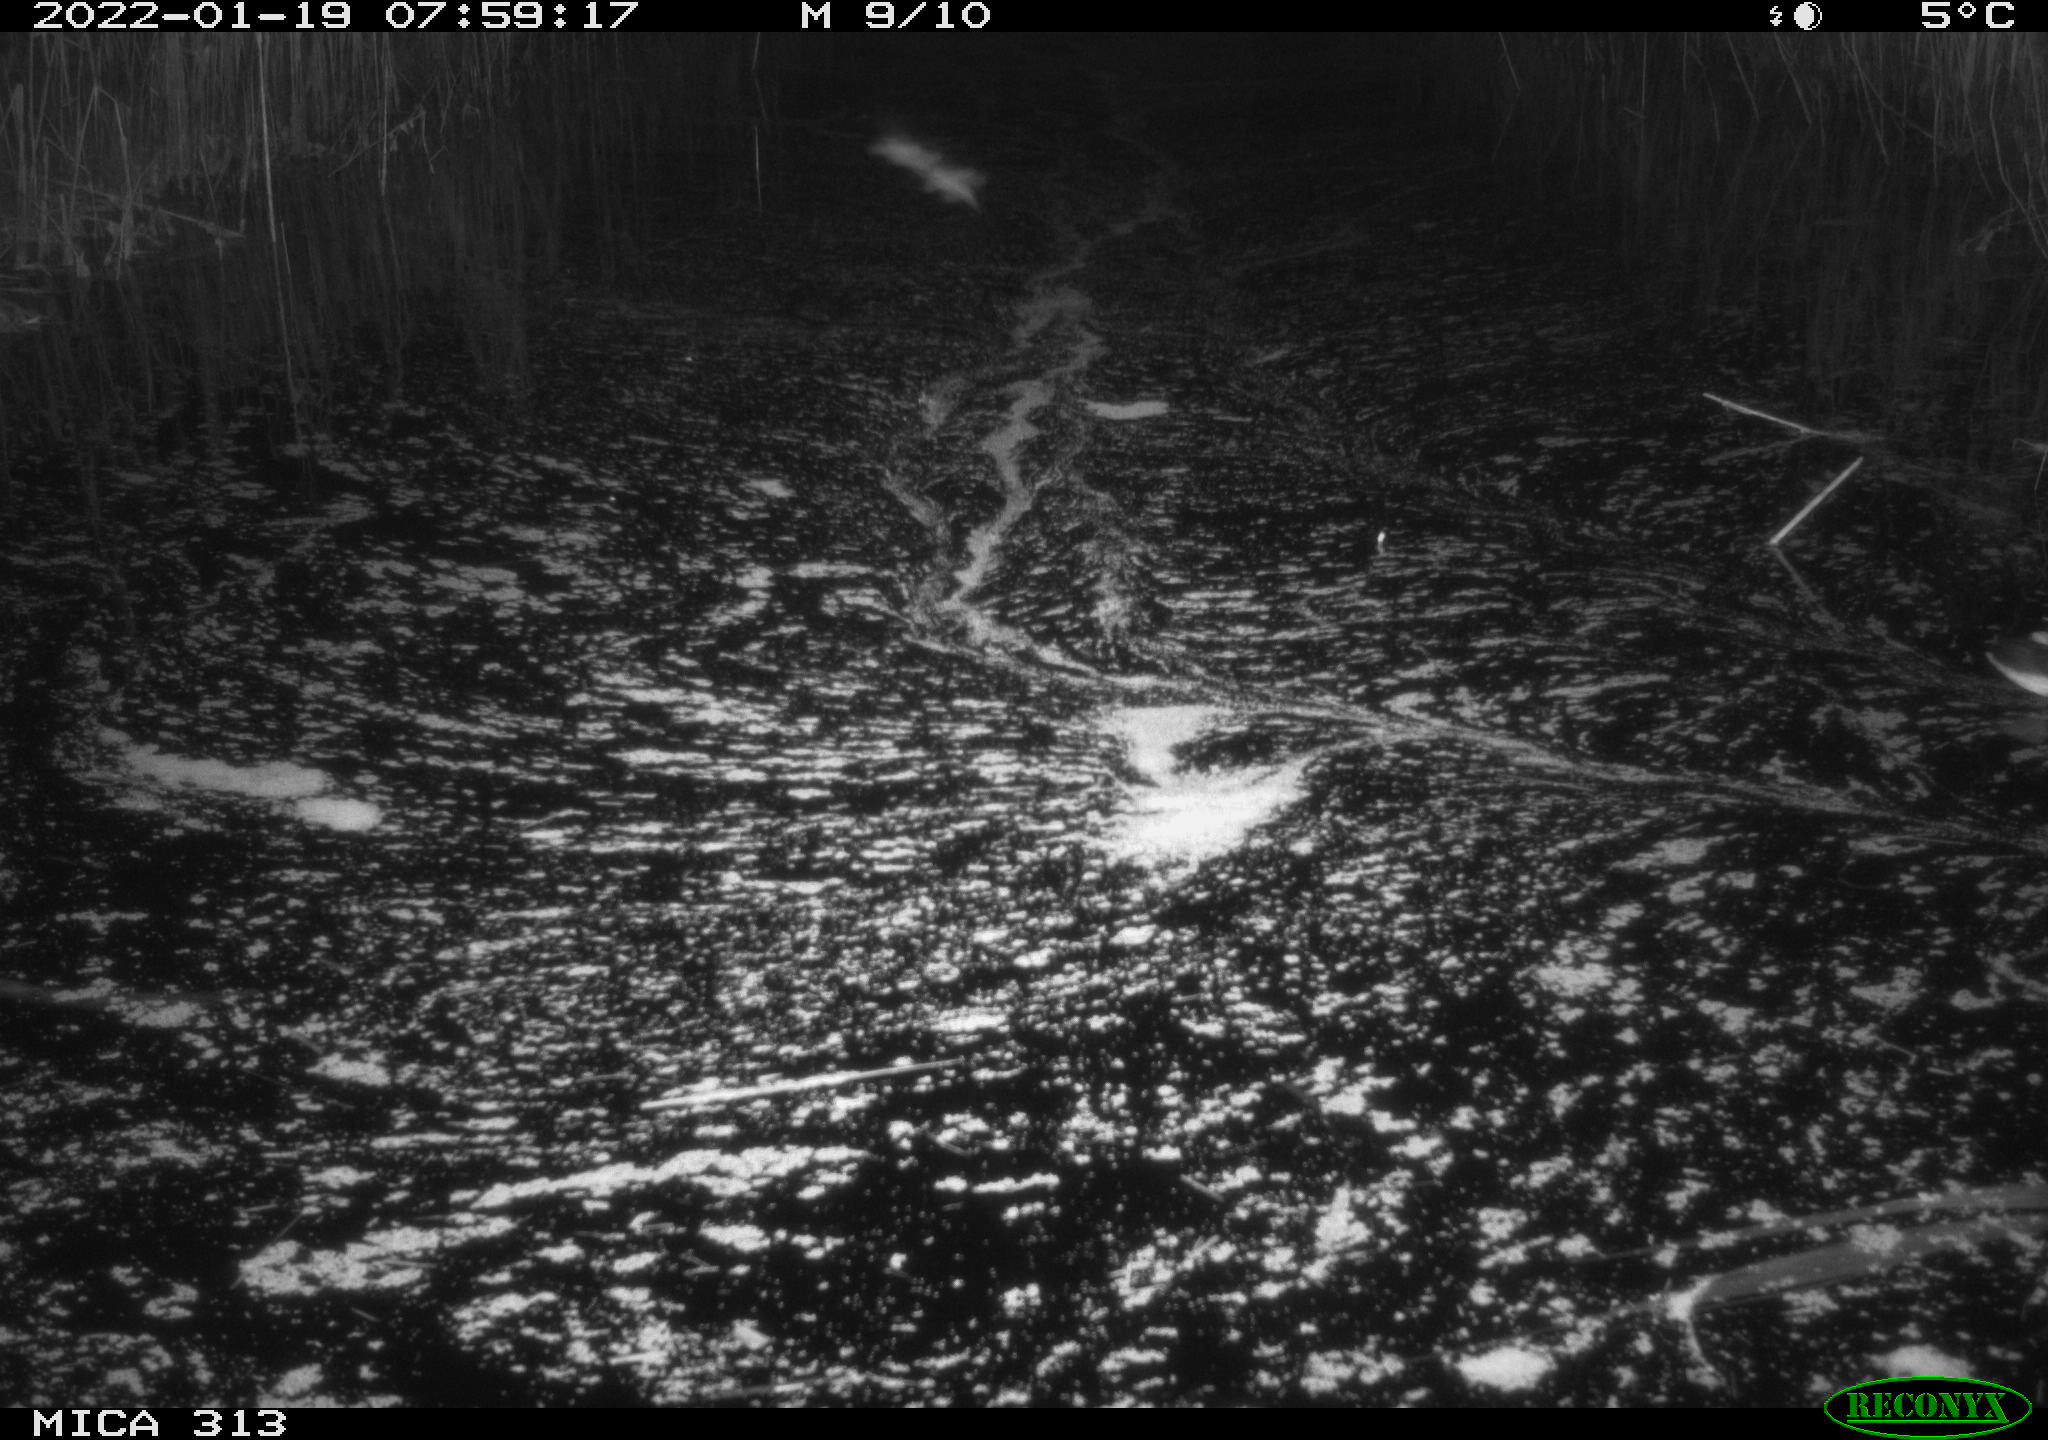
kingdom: Animalia
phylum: Chordata
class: Aves
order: Gruiformes
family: Rallidae
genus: Gallinula
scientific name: Gallinula chloropus
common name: Common moorhen
